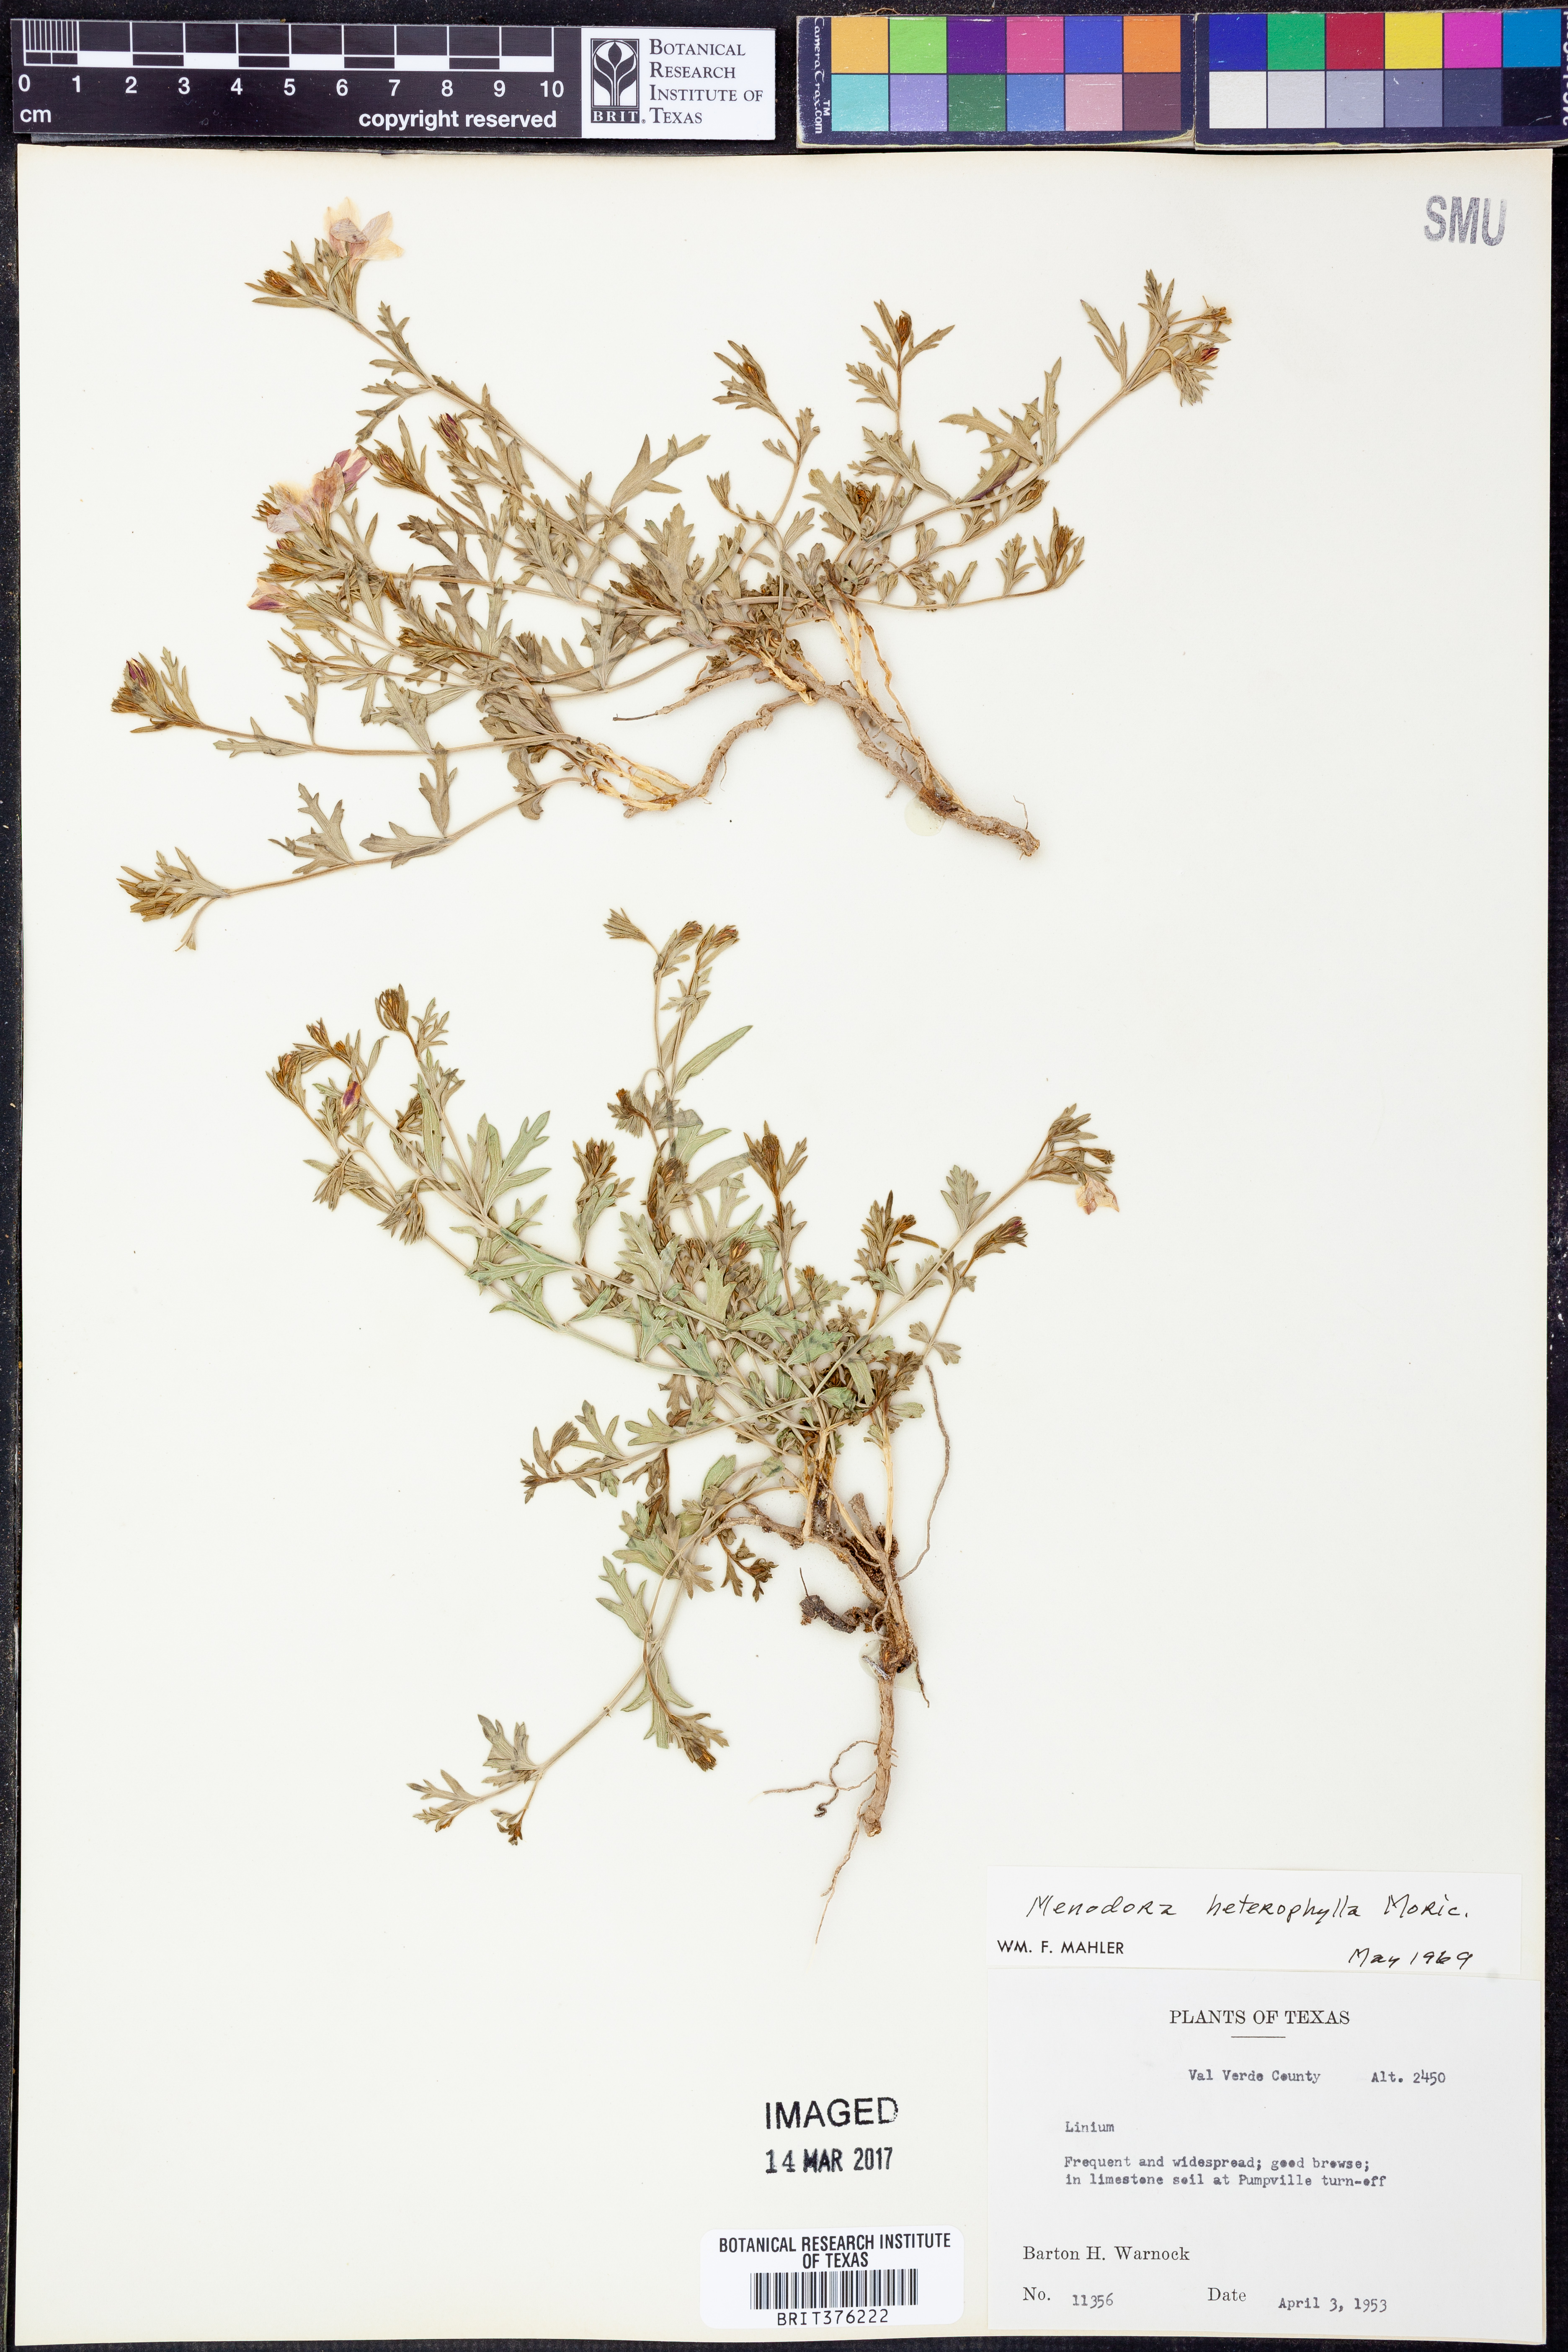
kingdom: Plantae
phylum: Tracheophyta
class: Magnoliopsida
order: Lamiales
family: Oleaceae
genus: Menodora
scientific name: Menodora heterophylla
